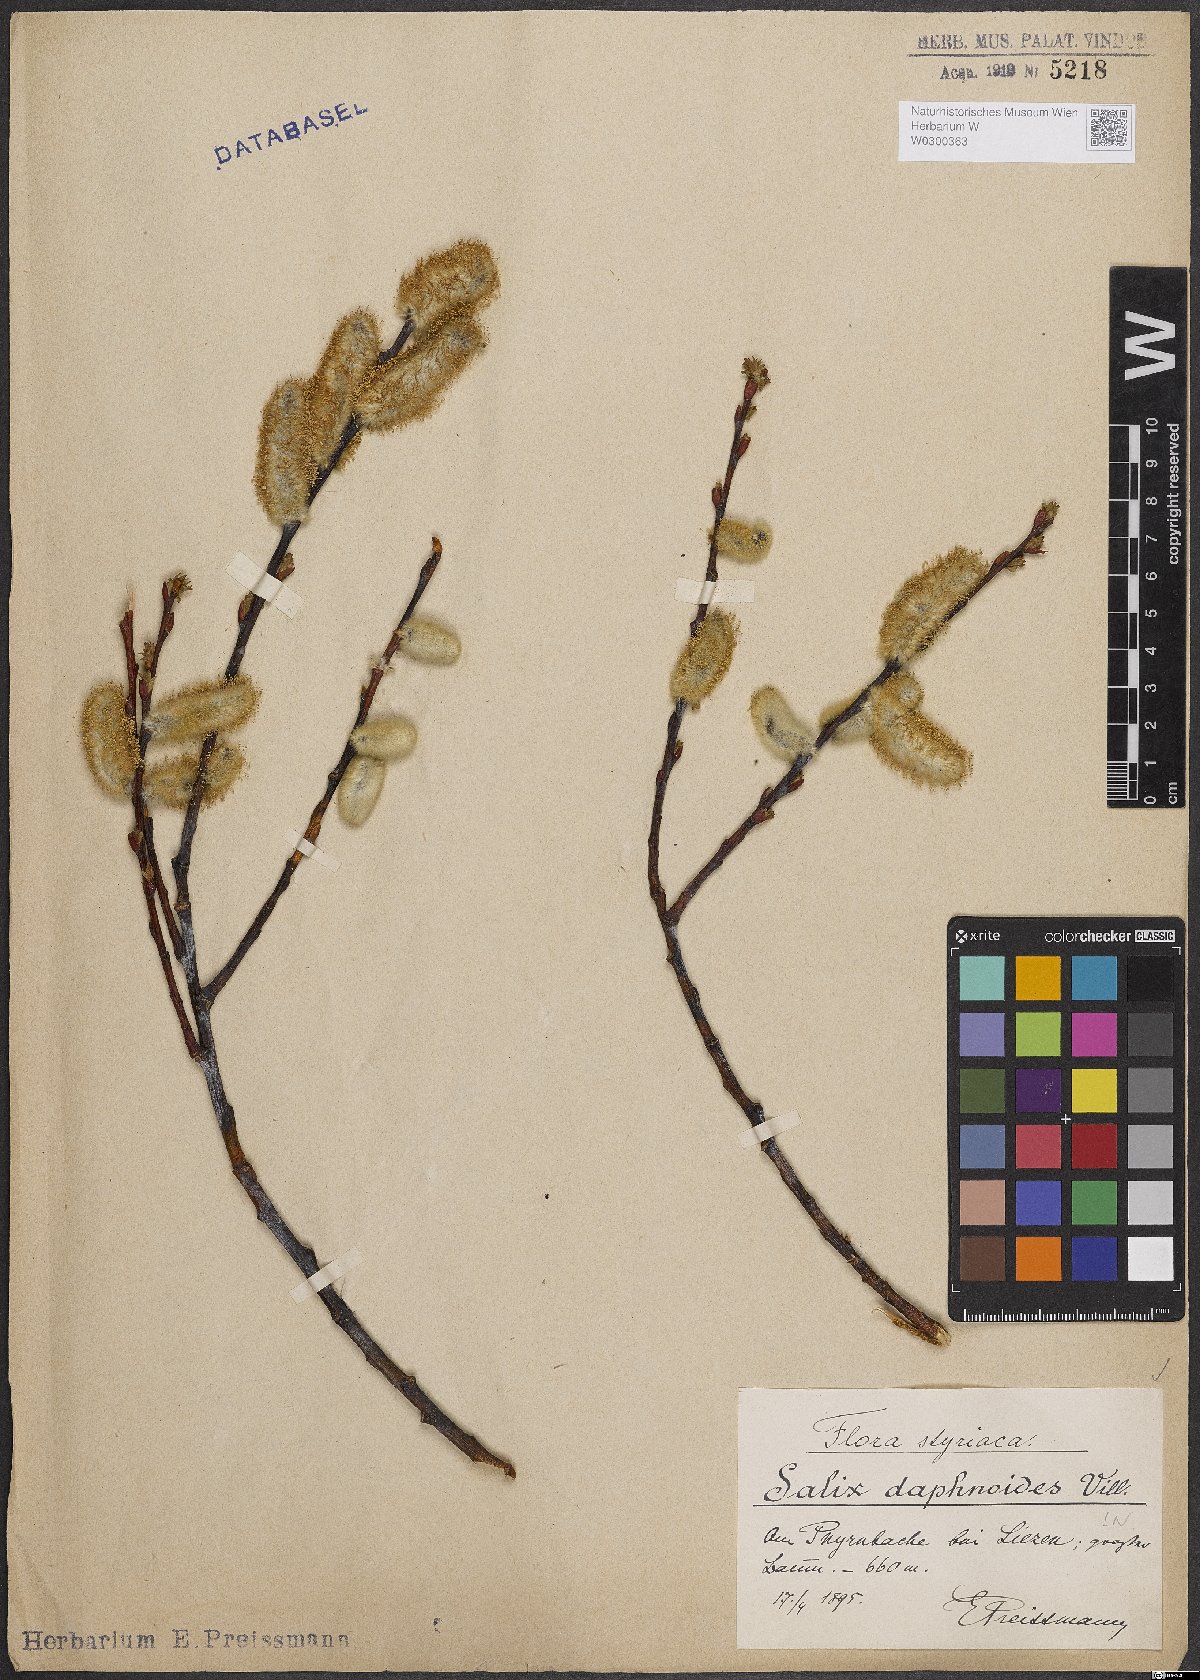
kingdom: Plantae
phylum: Tracheophyta
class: Magnoliopsida
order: Malpighiales
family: Salicaceae
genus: Salix
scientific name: Salix daphnoides
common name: European violet-willow
